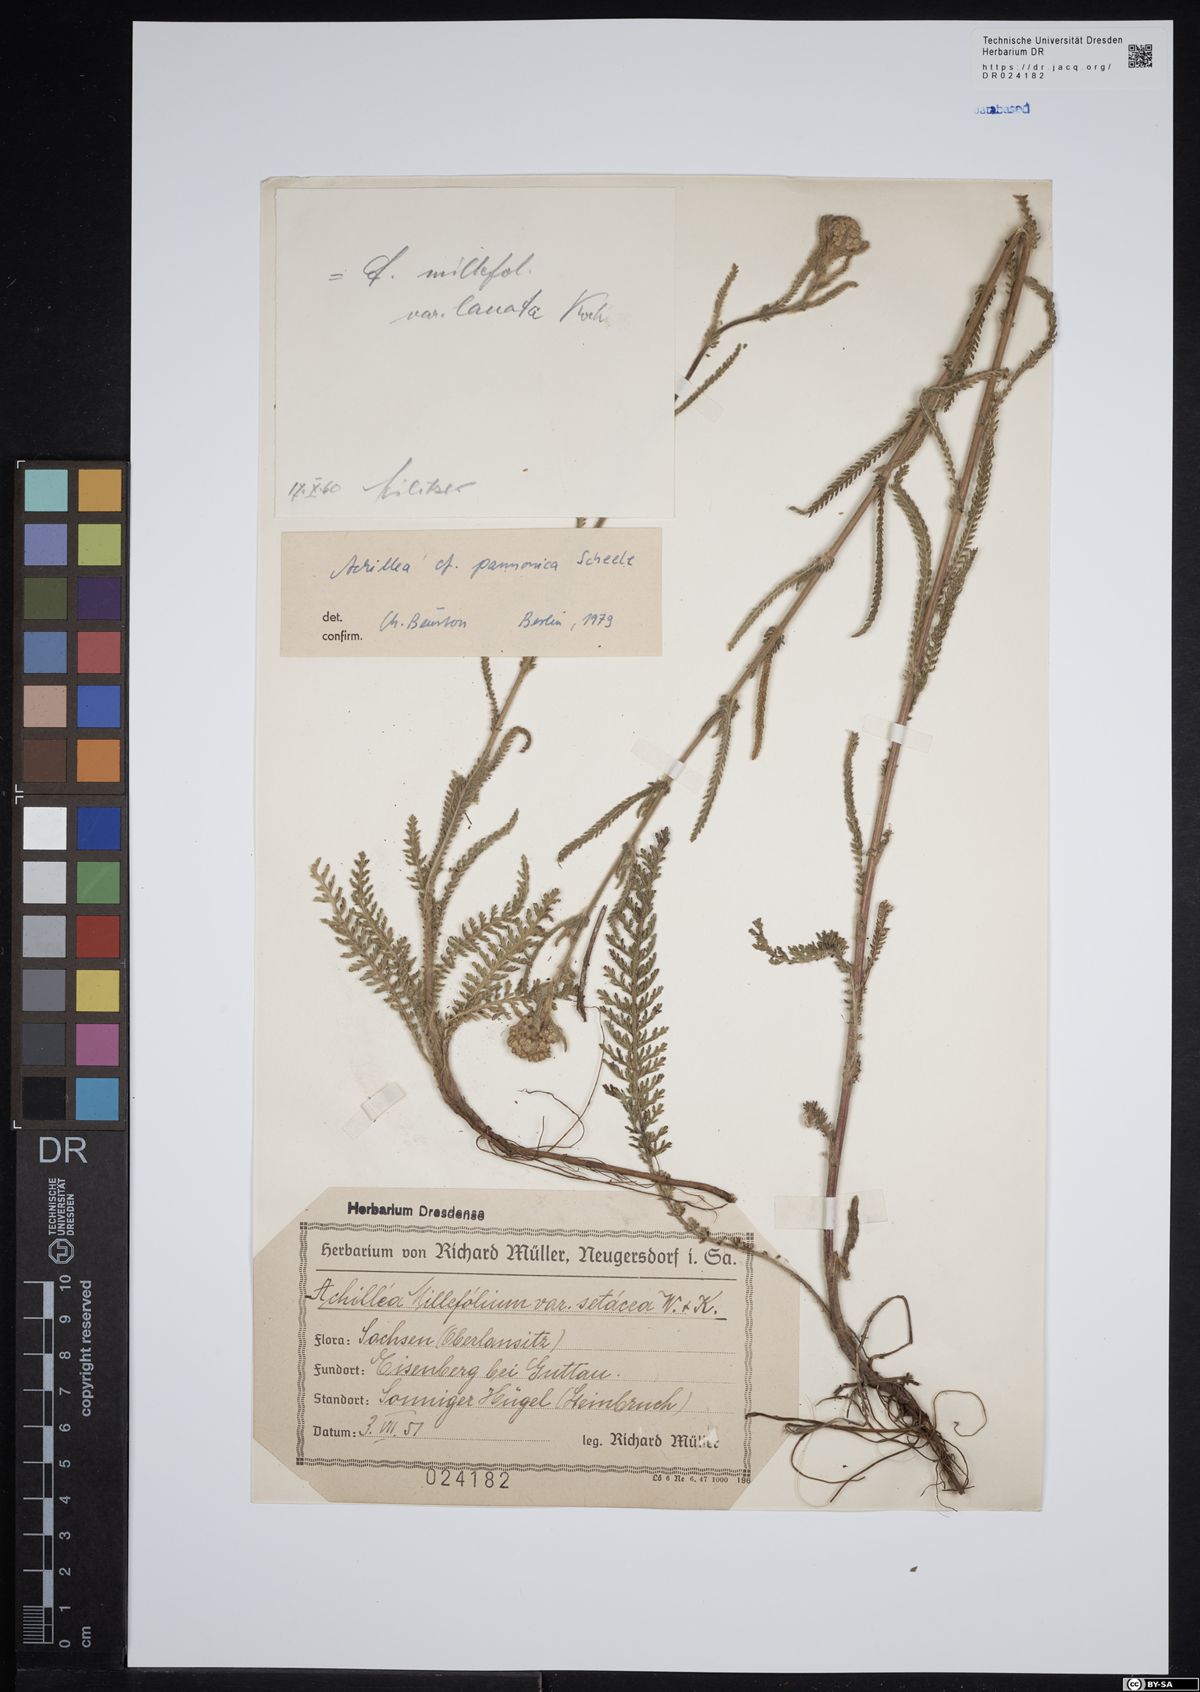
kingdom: Plantae
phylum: Tracheophyta
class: Magnoliopsida
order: Asterales
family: Asteraceae
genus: Achillea
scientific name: Achillea pannonica
